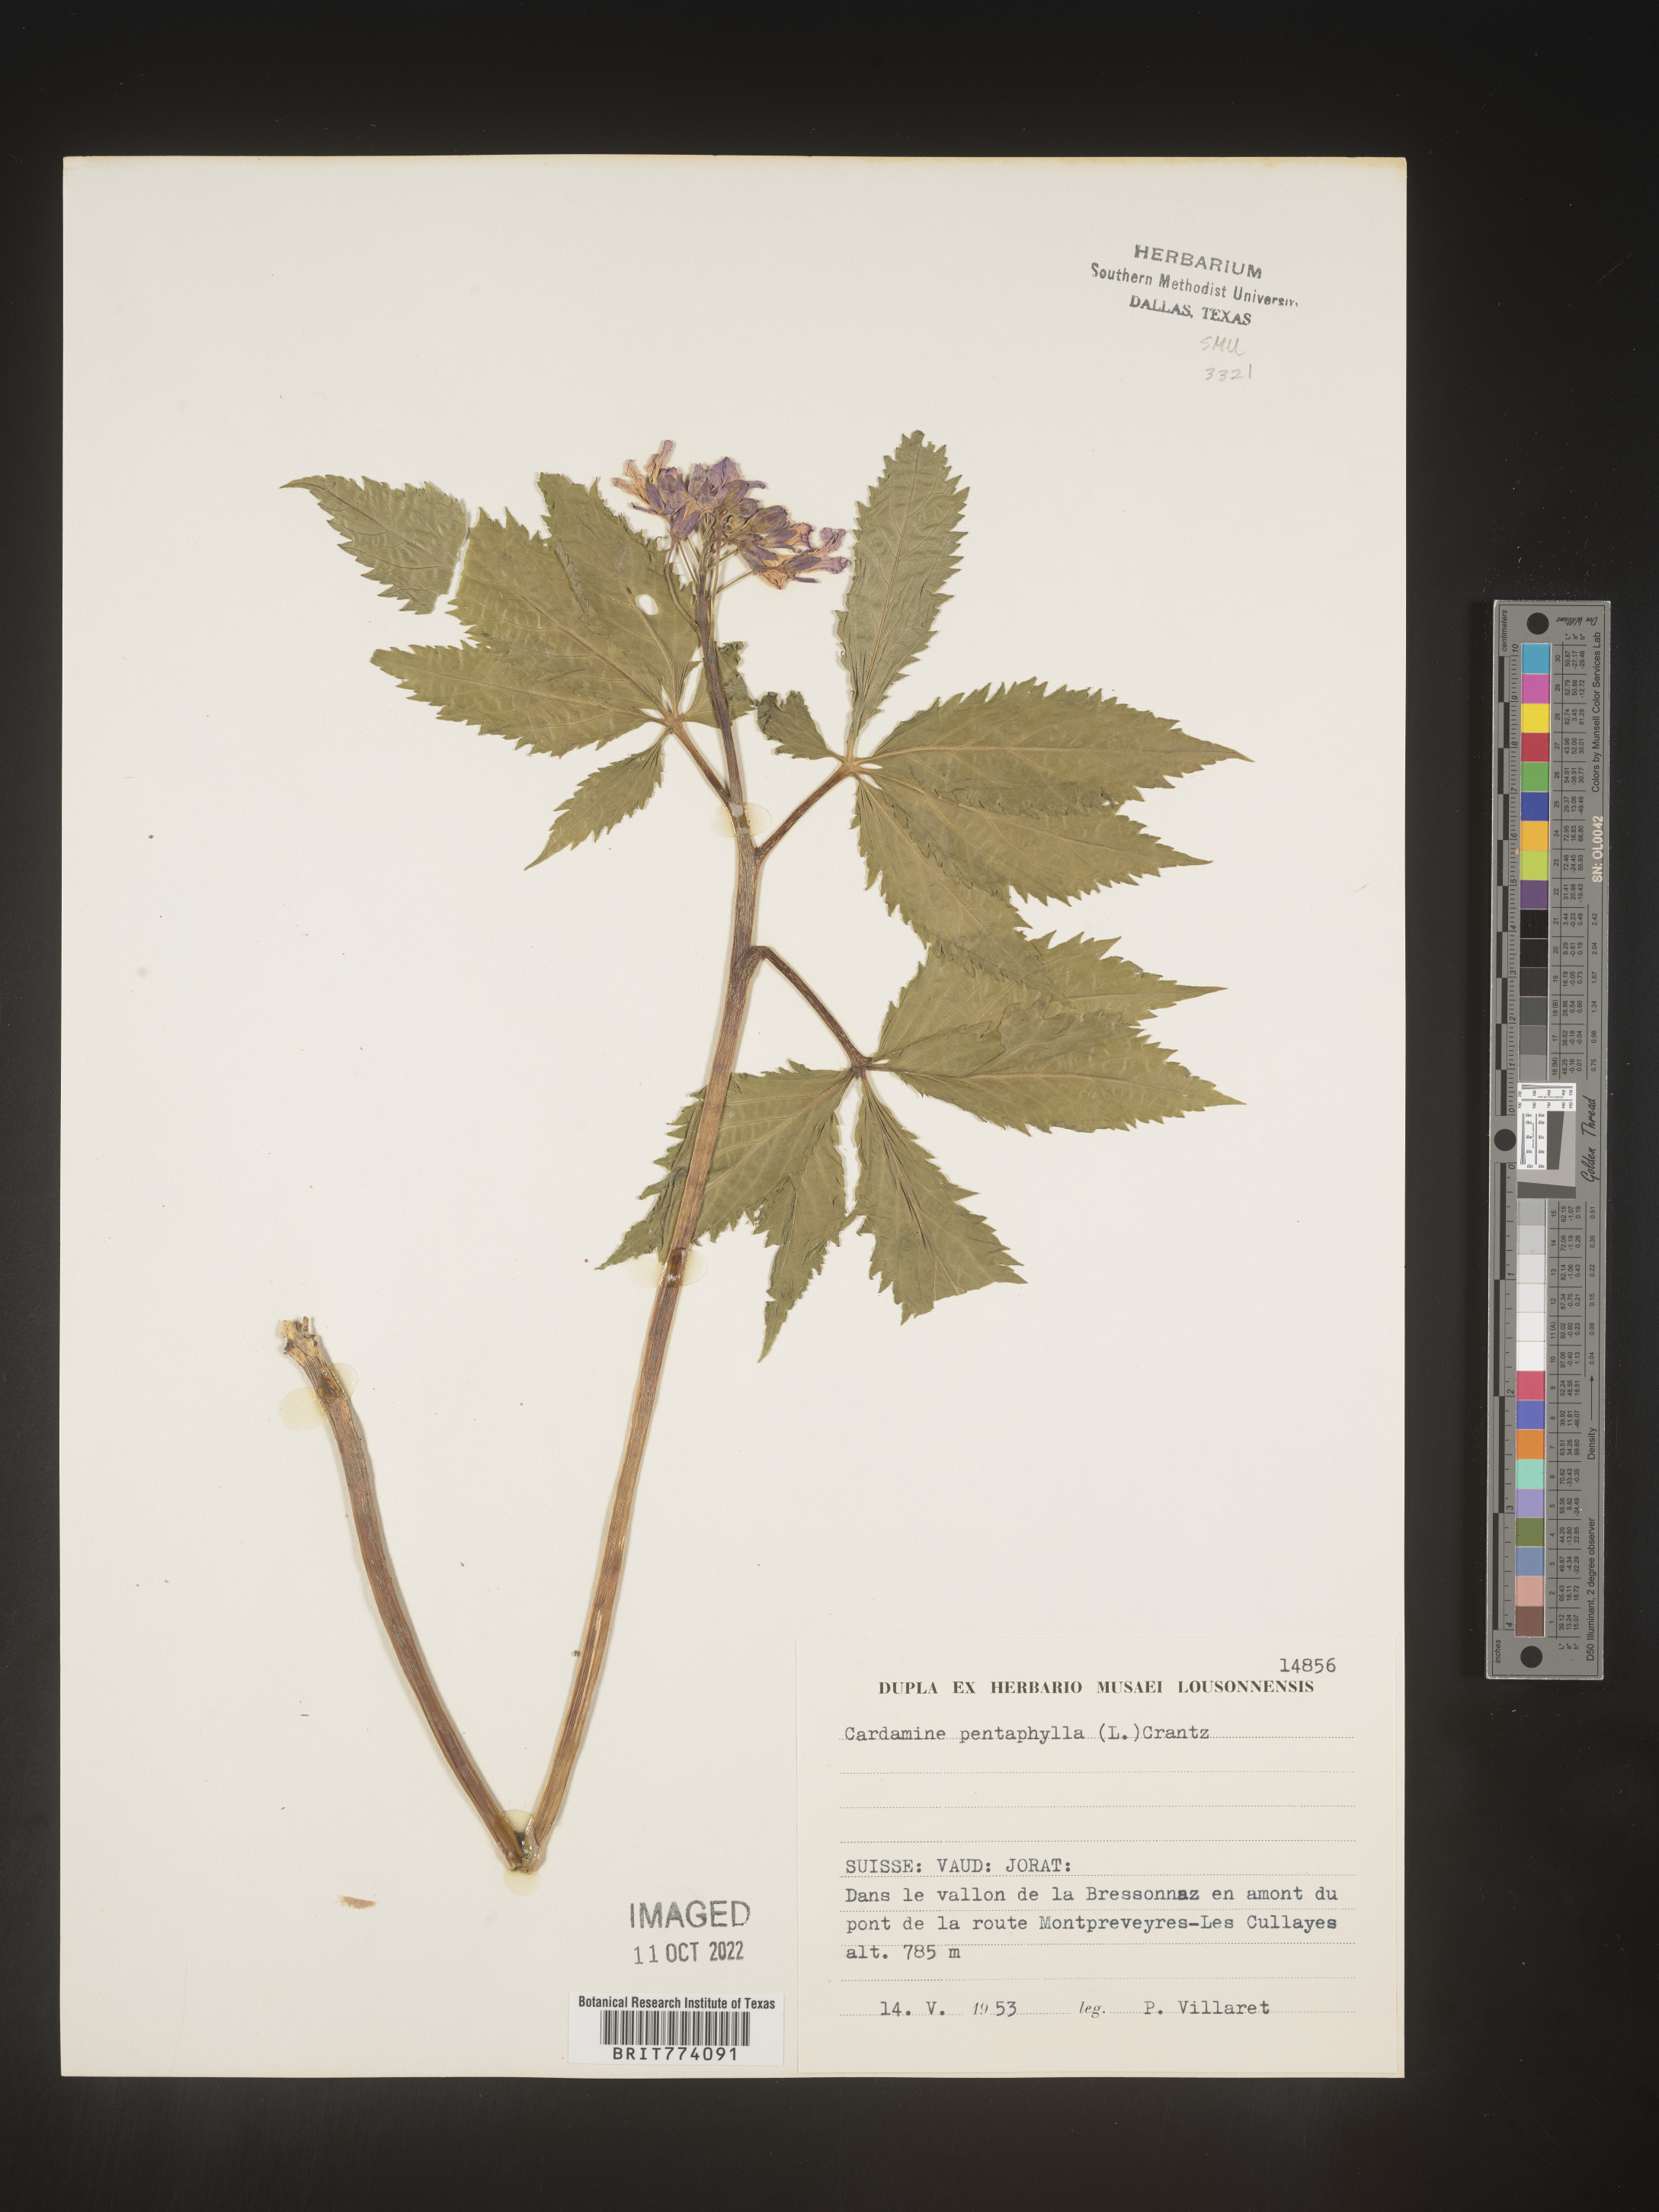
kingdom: Plantae
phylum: Tracheophyta
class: Magnoliopsida
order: Brassicales
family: Brassicaceae
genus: Cardamine
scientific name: Cardamine
